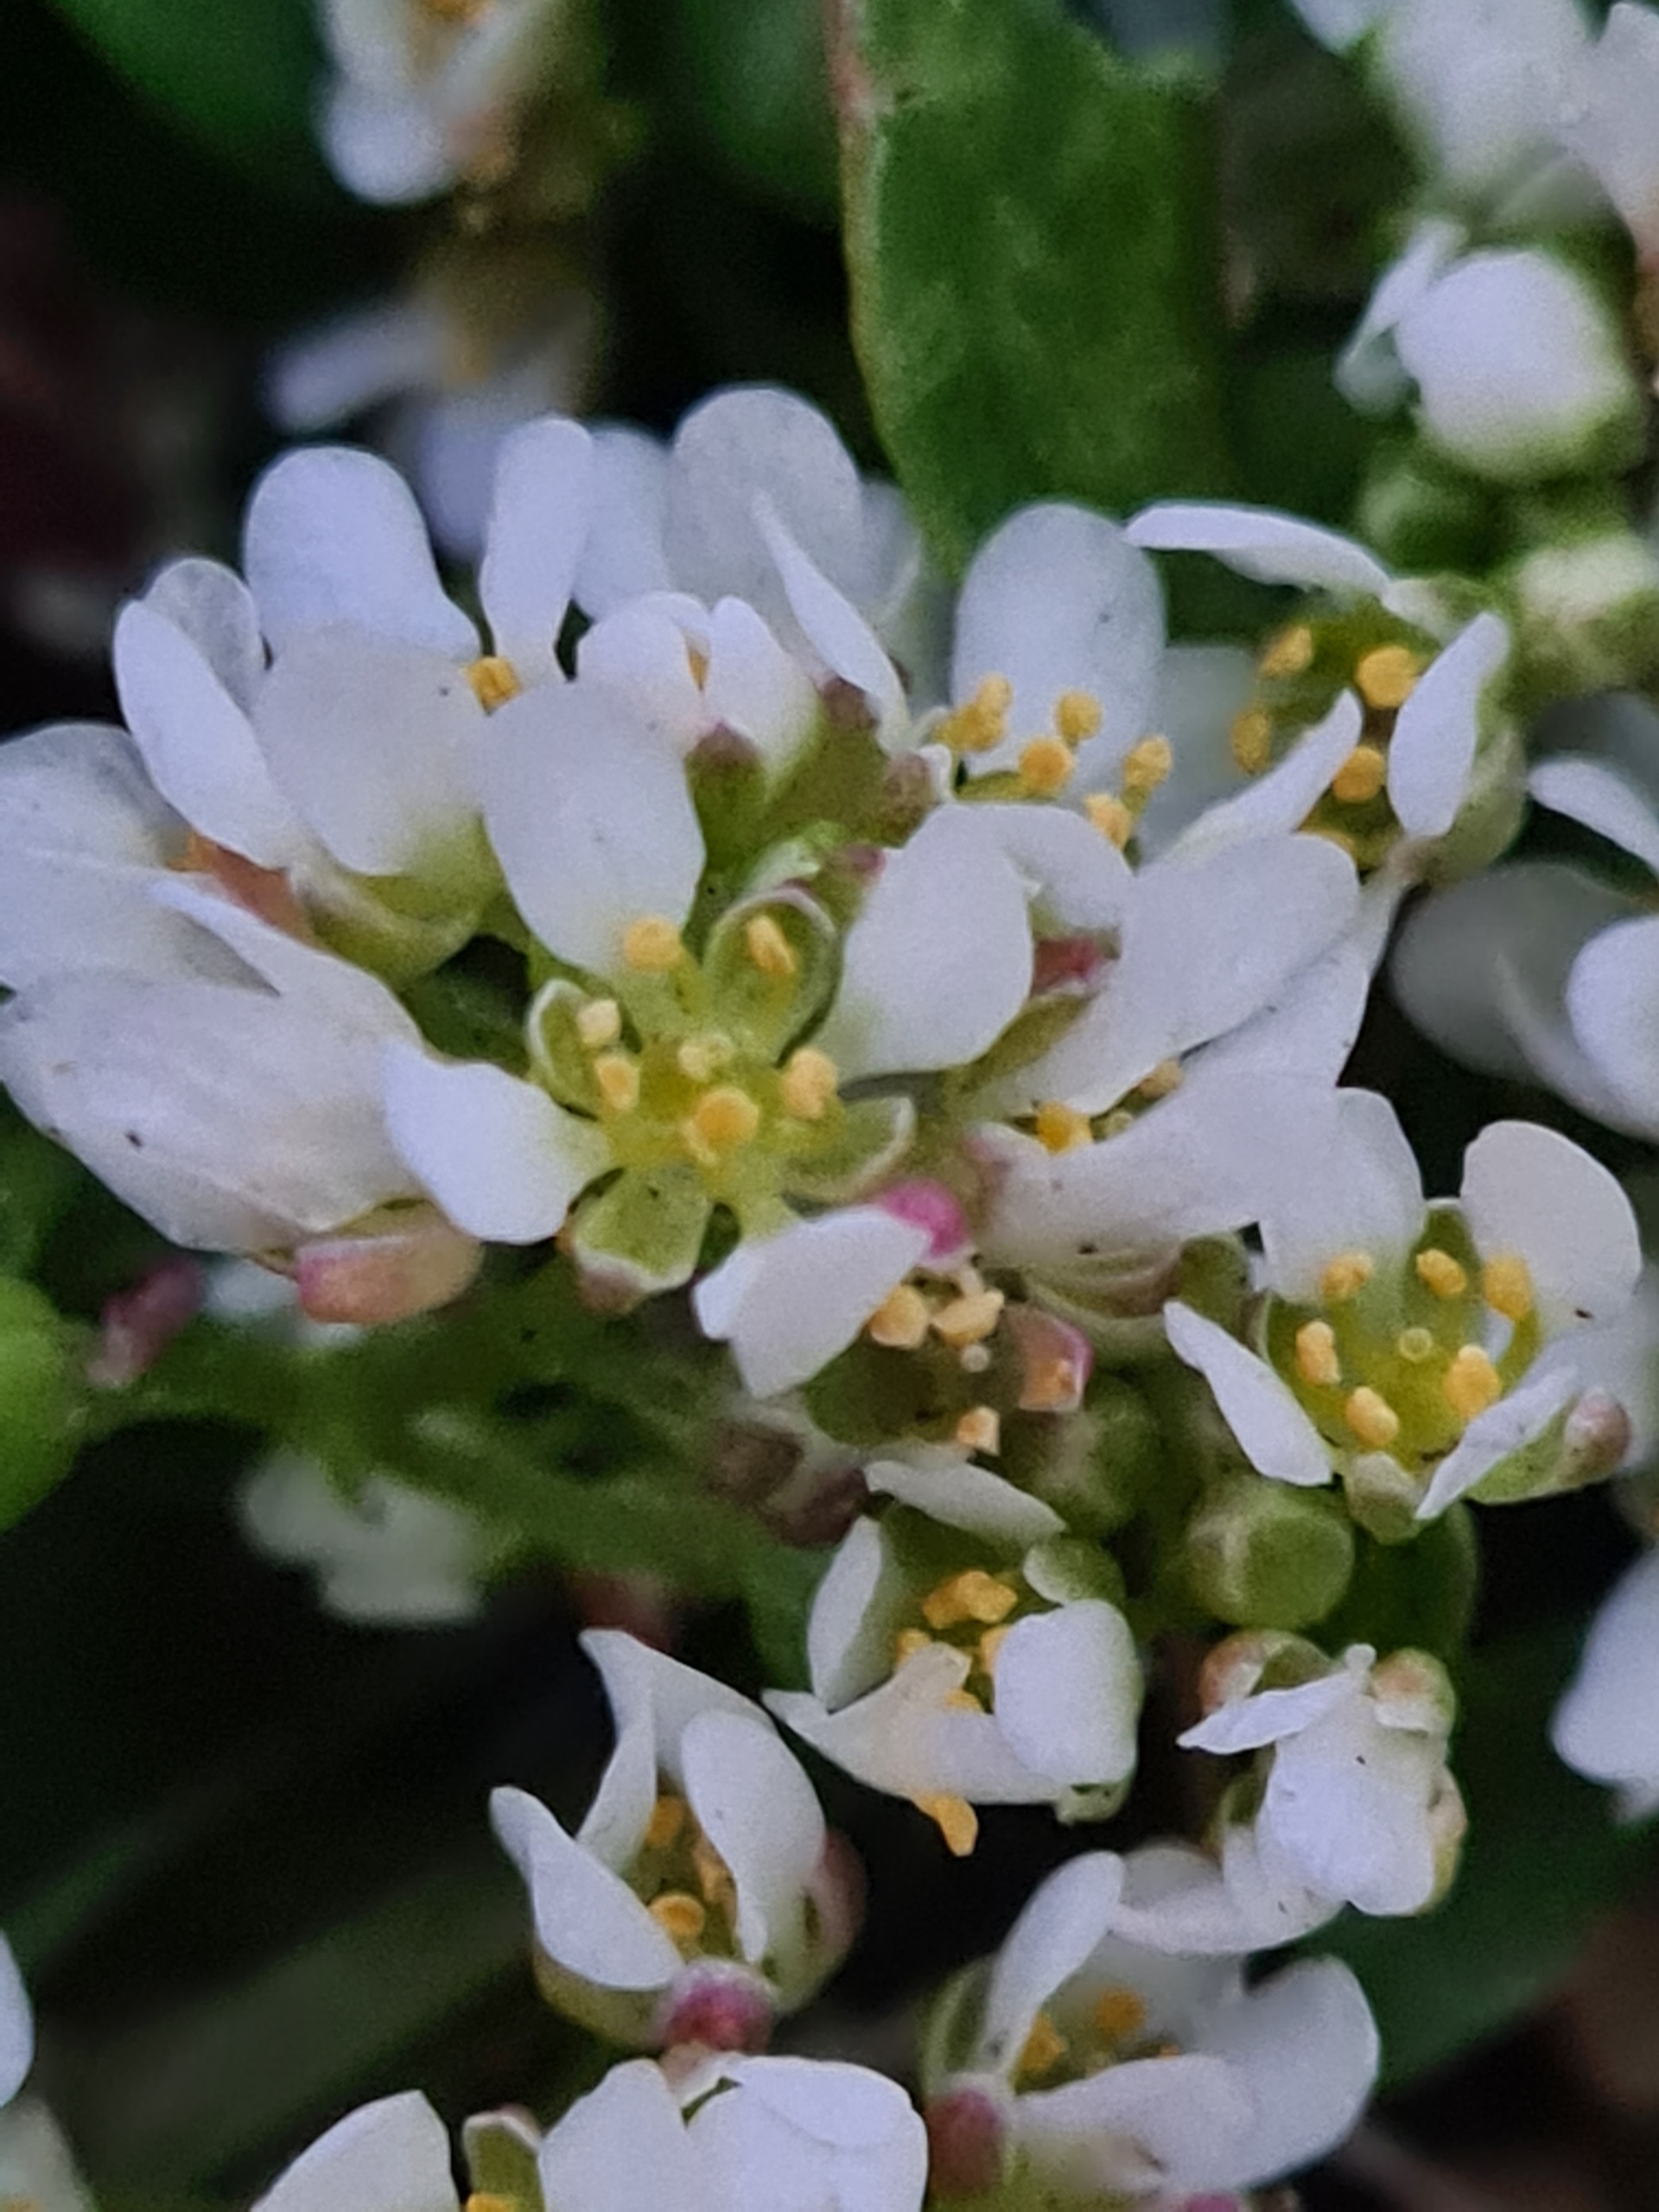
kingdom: Plantae
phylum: Tracheophyta
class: Magnoliopsida
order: Brassicales
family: Brassicaceae
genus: Cochlearia
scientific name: Cochlearia danica
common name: Dansk kokleare
